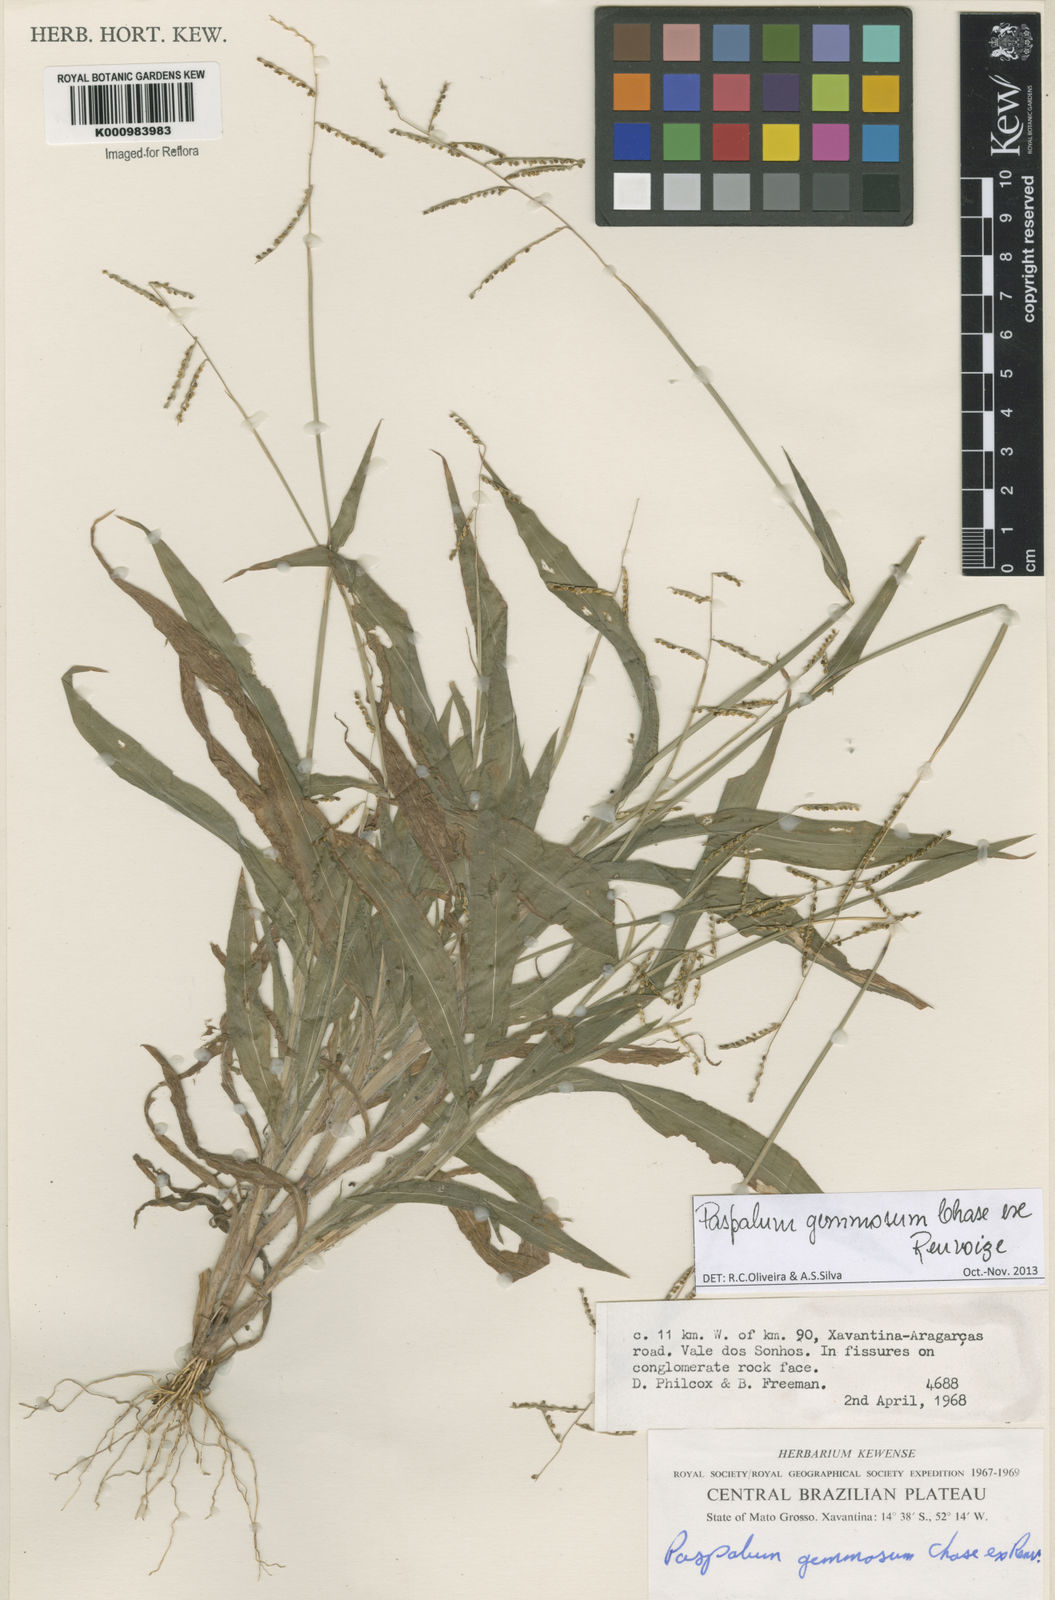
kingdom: Plantae
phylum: Tracheophyta
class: Liliopsida
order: Poales
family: Poaceae
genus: Paspalum
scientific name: Paspalum subsesquiglume
